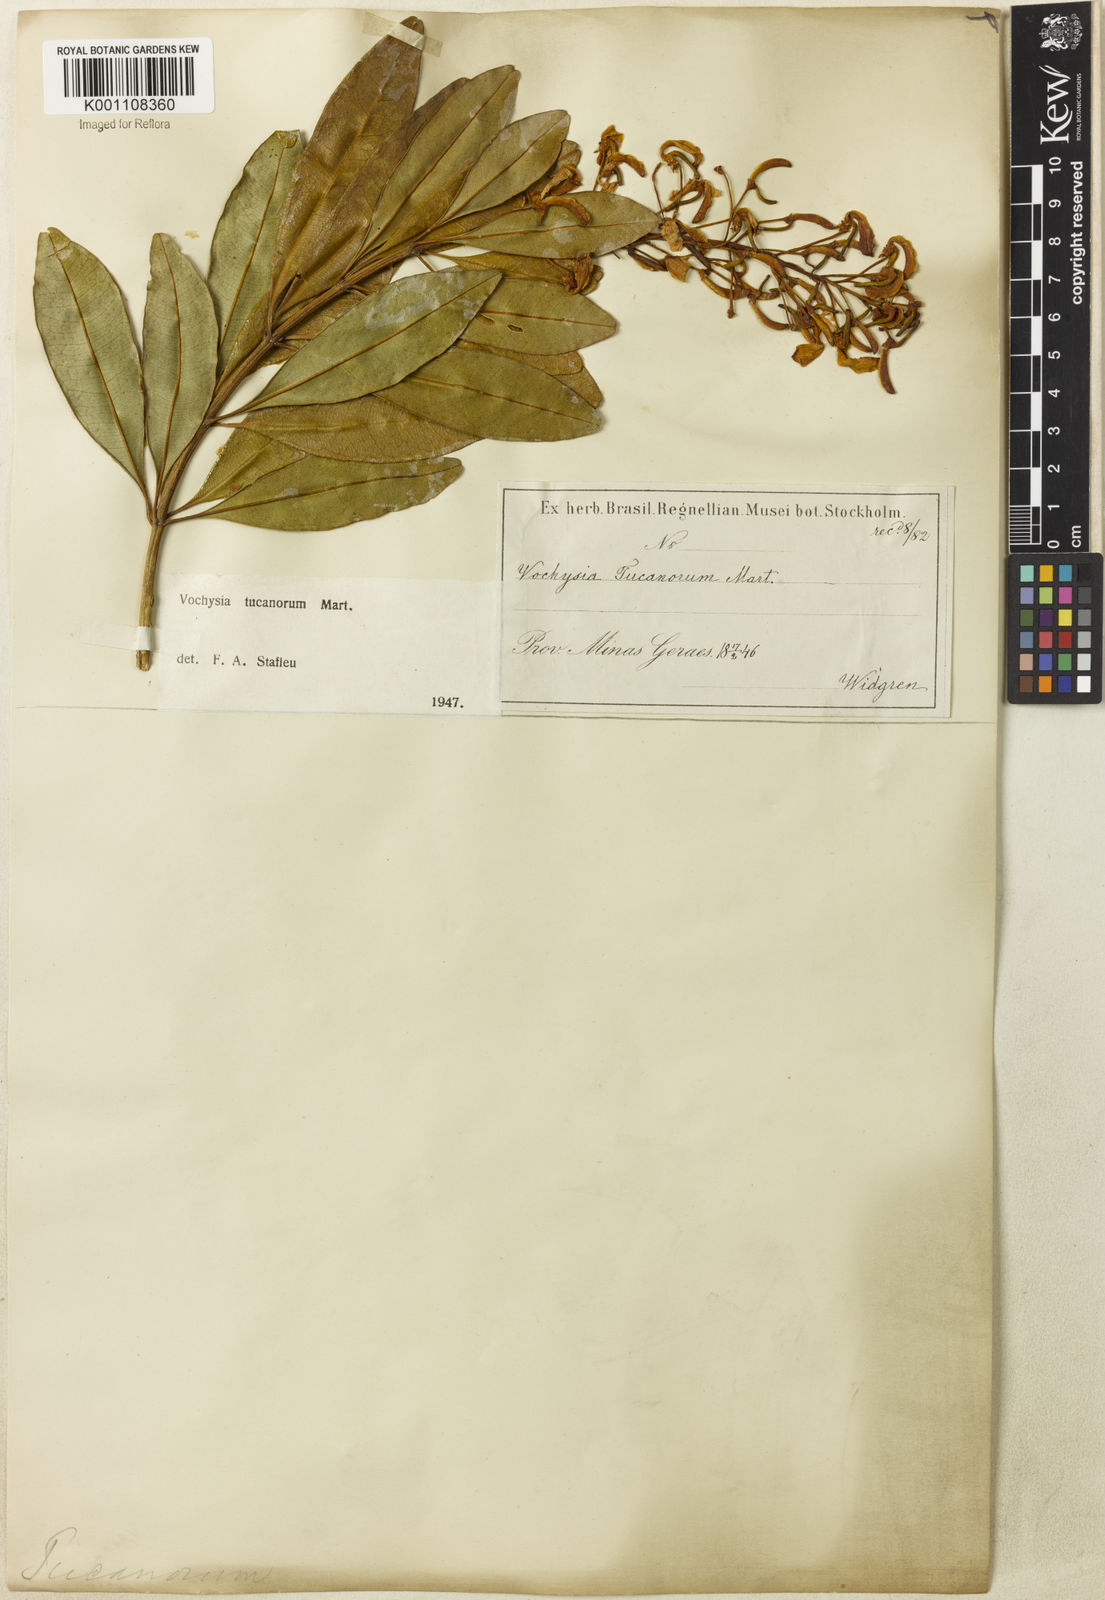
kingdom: Plantae
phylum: Tracheophyta
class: Magnoliopsida
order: Myrtales
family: Vochysiaceae
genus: Vochysia
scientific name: Vochysia tucanorum
